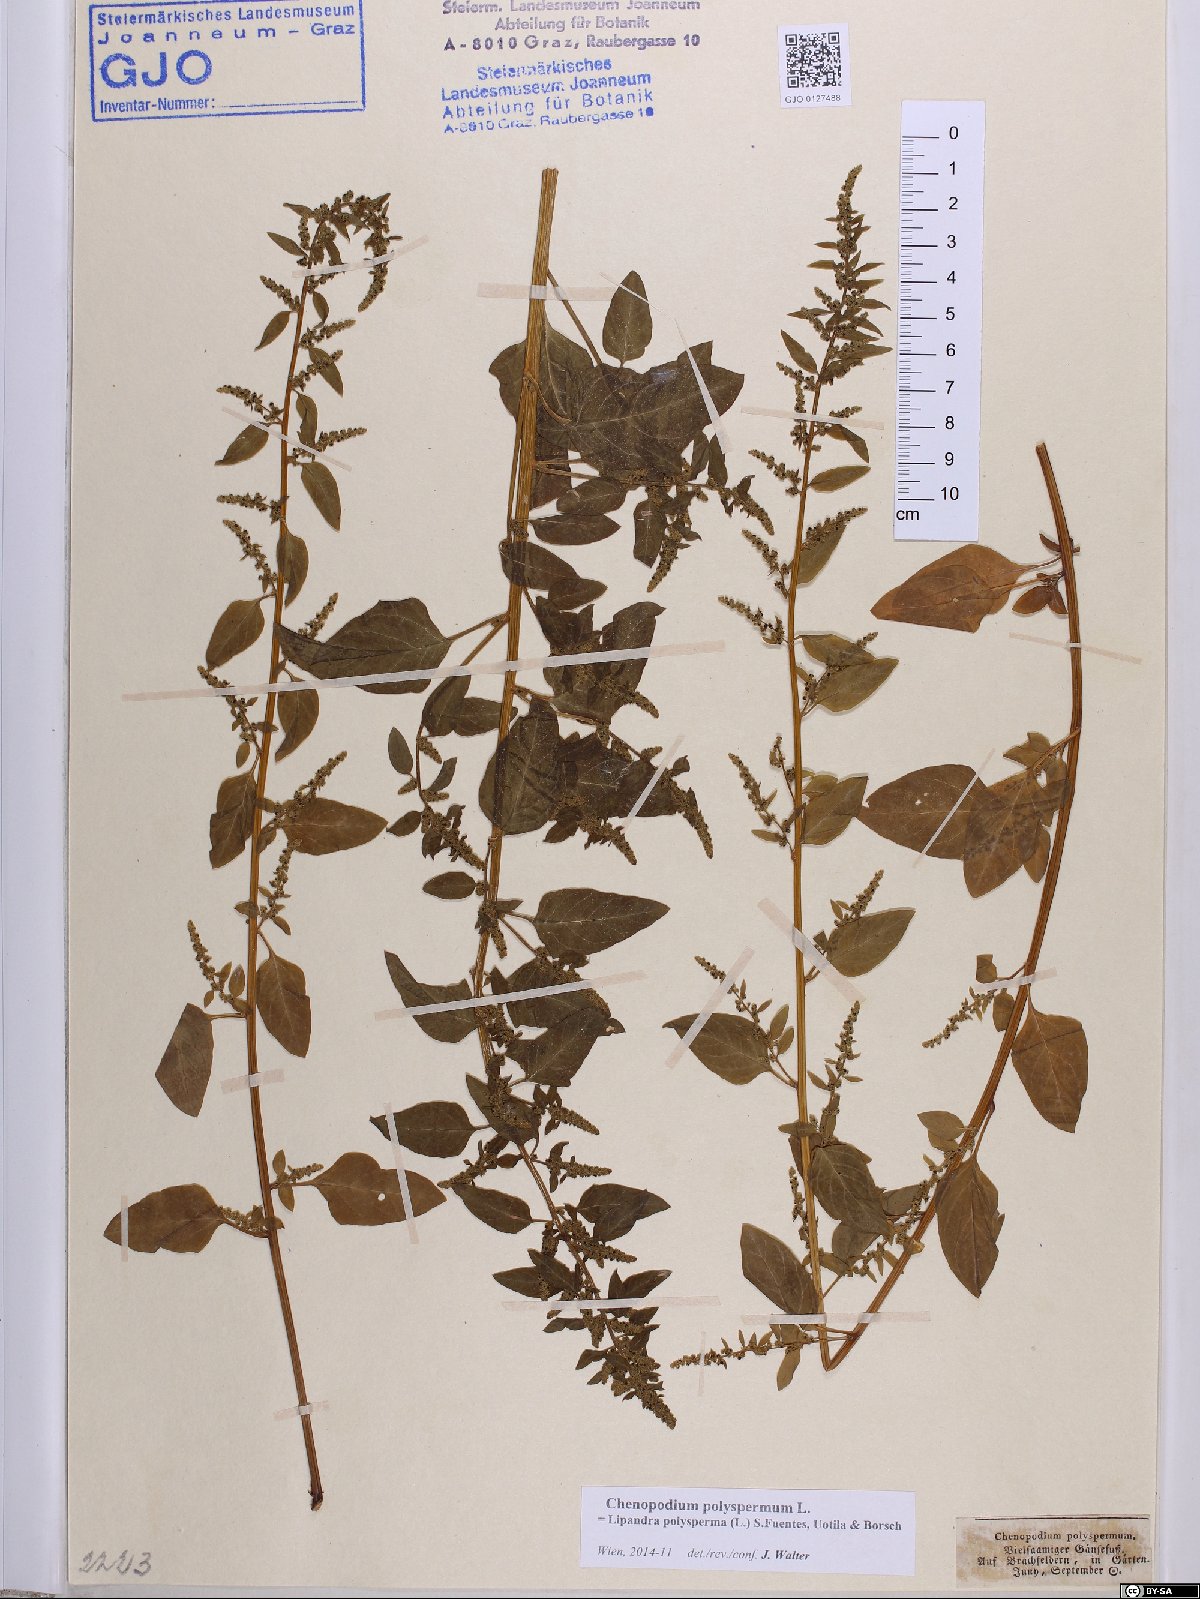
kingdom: Plantae
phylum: Tracheophyta
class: Magnoliopsida
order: Caryophyllales
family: Amaranthaceae
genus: Lipandra
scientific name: Lipandra polysperma
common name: Many-seed goosefoot
